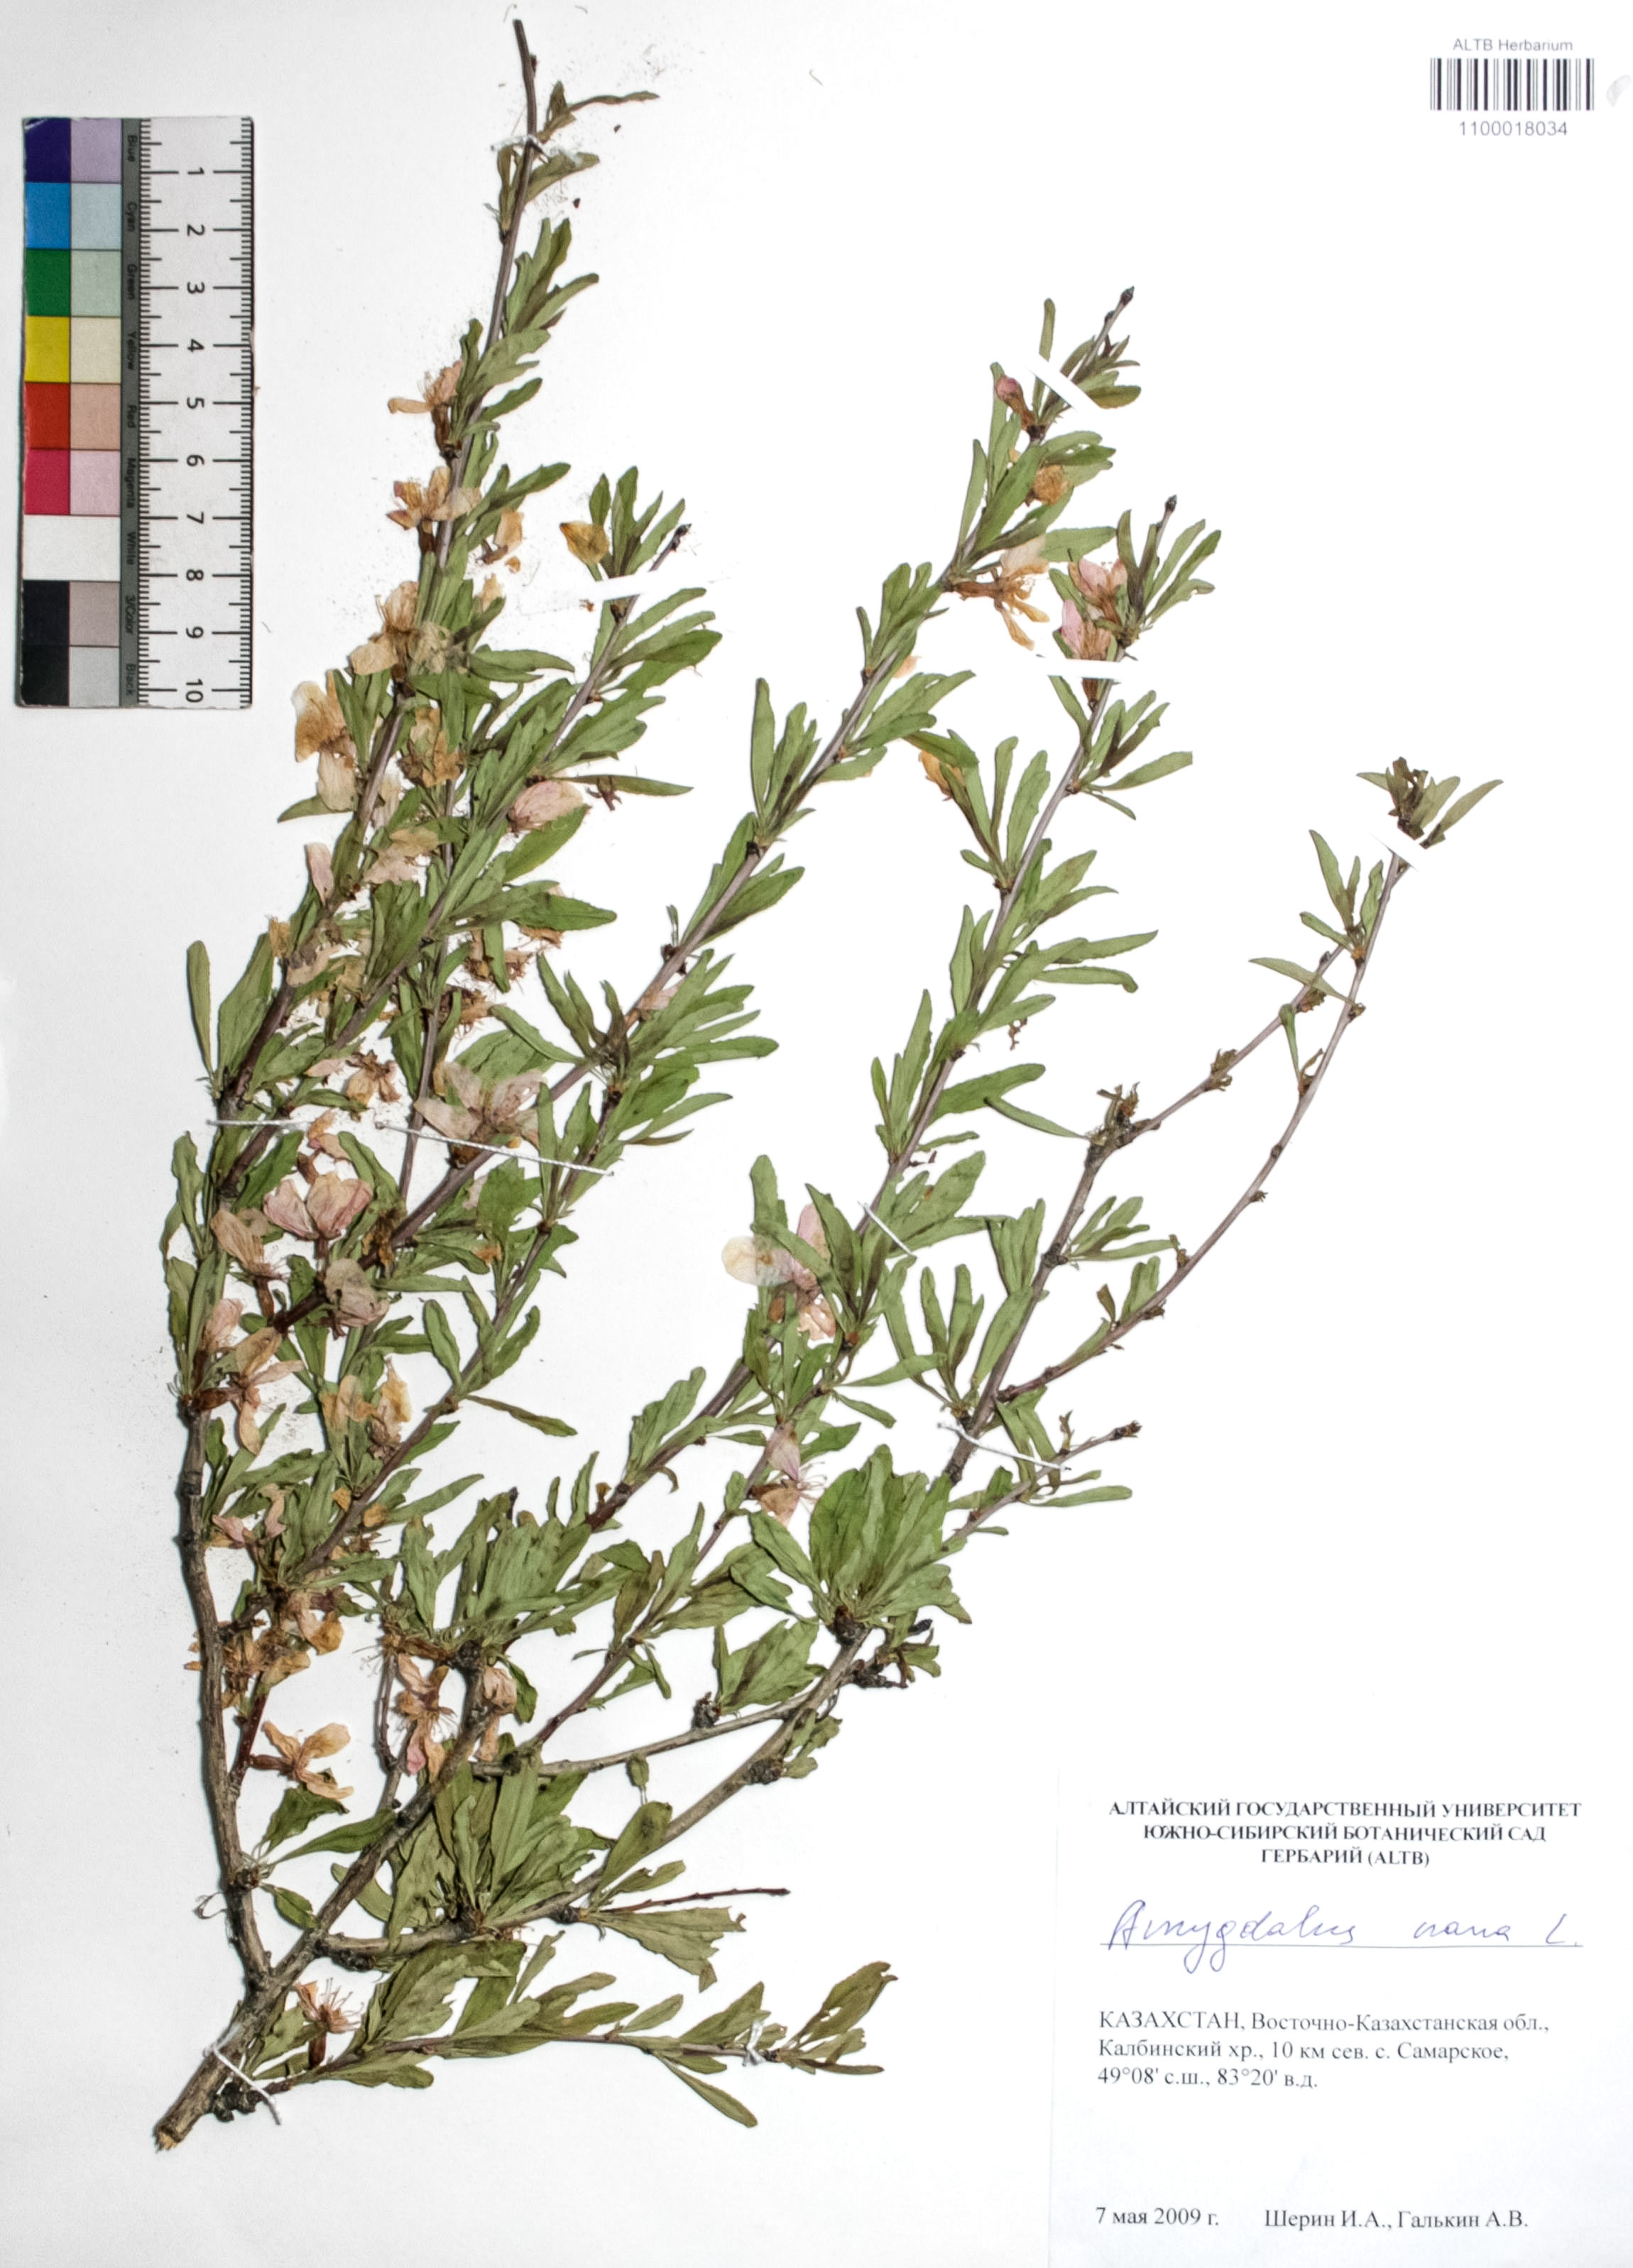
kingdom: Plantae
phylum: Tracheophyta
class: Magnoliopsida
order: Rosales
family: Rosaceae
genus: Prunus
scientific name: Prunus tenella
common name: Dwarf russian almond
